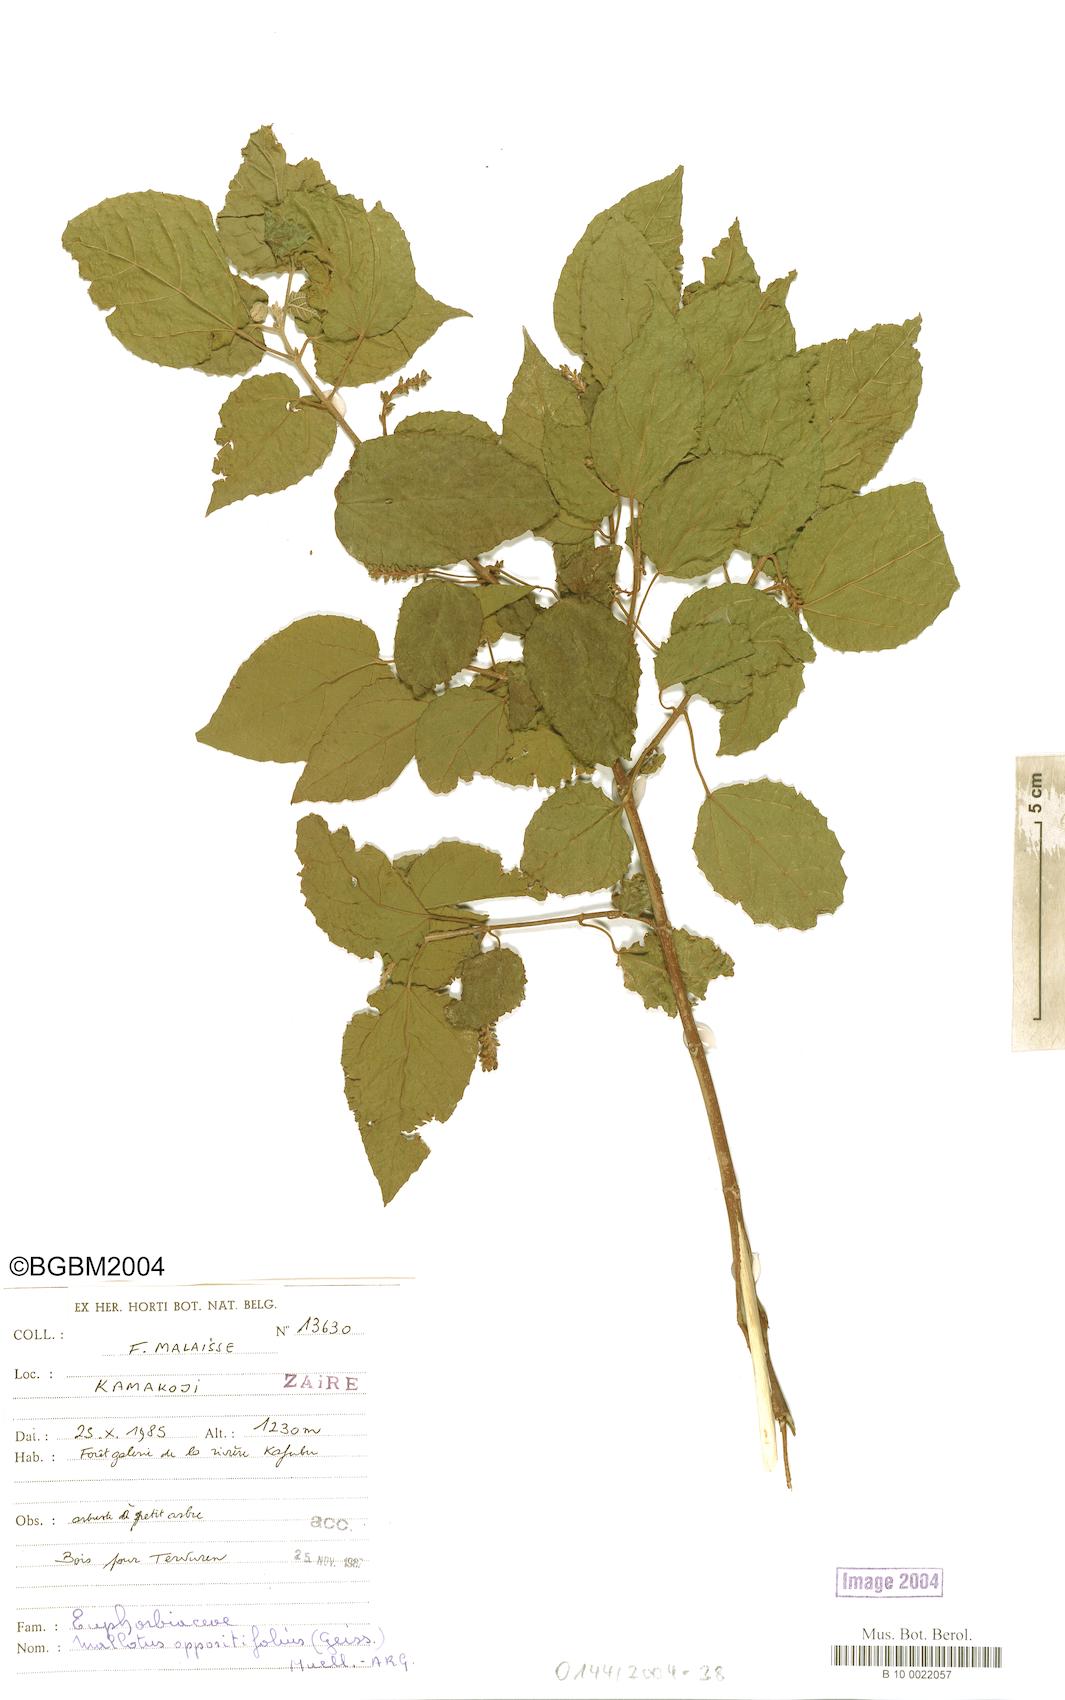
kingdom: Plantae
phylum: Tracheophyta
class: Magnoliopsida
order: Malpighiales
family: Euphorbiaceae
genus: Mallotus
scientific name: Mallotus oppositifolius
